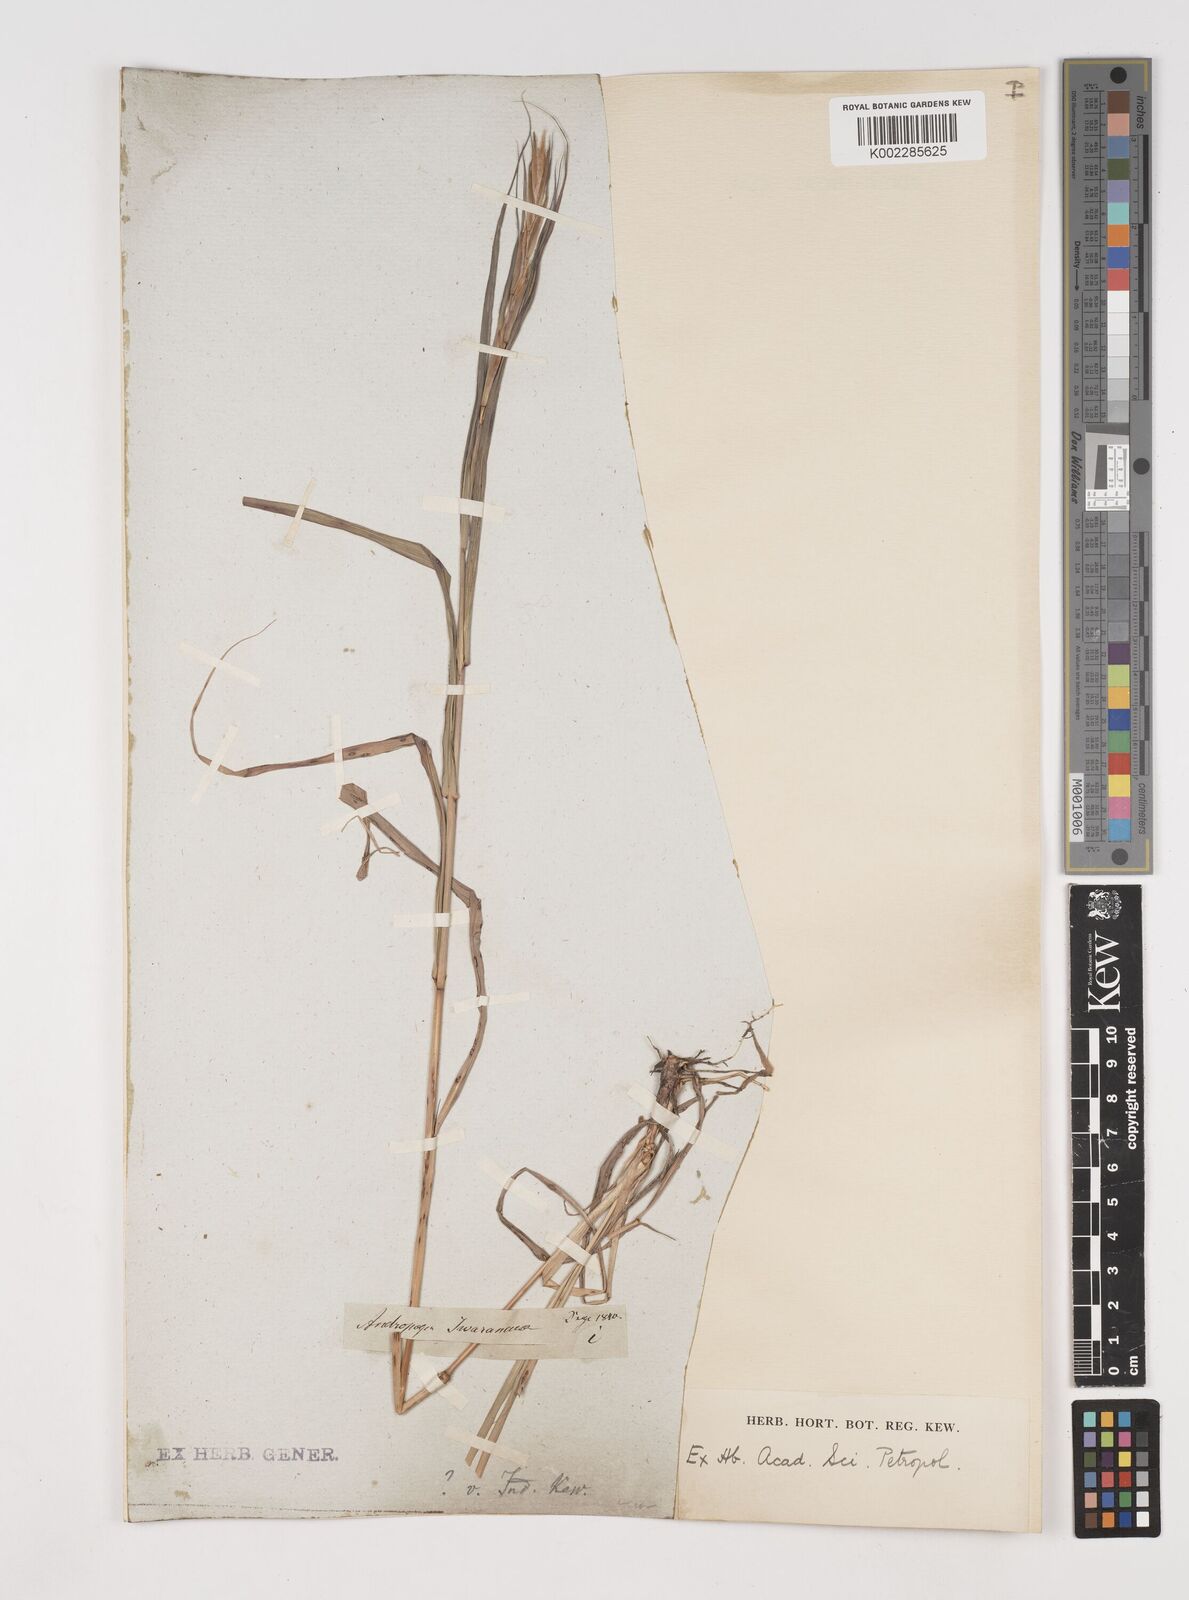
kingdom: Plantae
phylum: Tracheophyta
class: Liliopsida
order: Poales
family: Poaceae
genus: Cymbopogon
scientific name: Cymbopogon caesius
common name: Kachi grass
